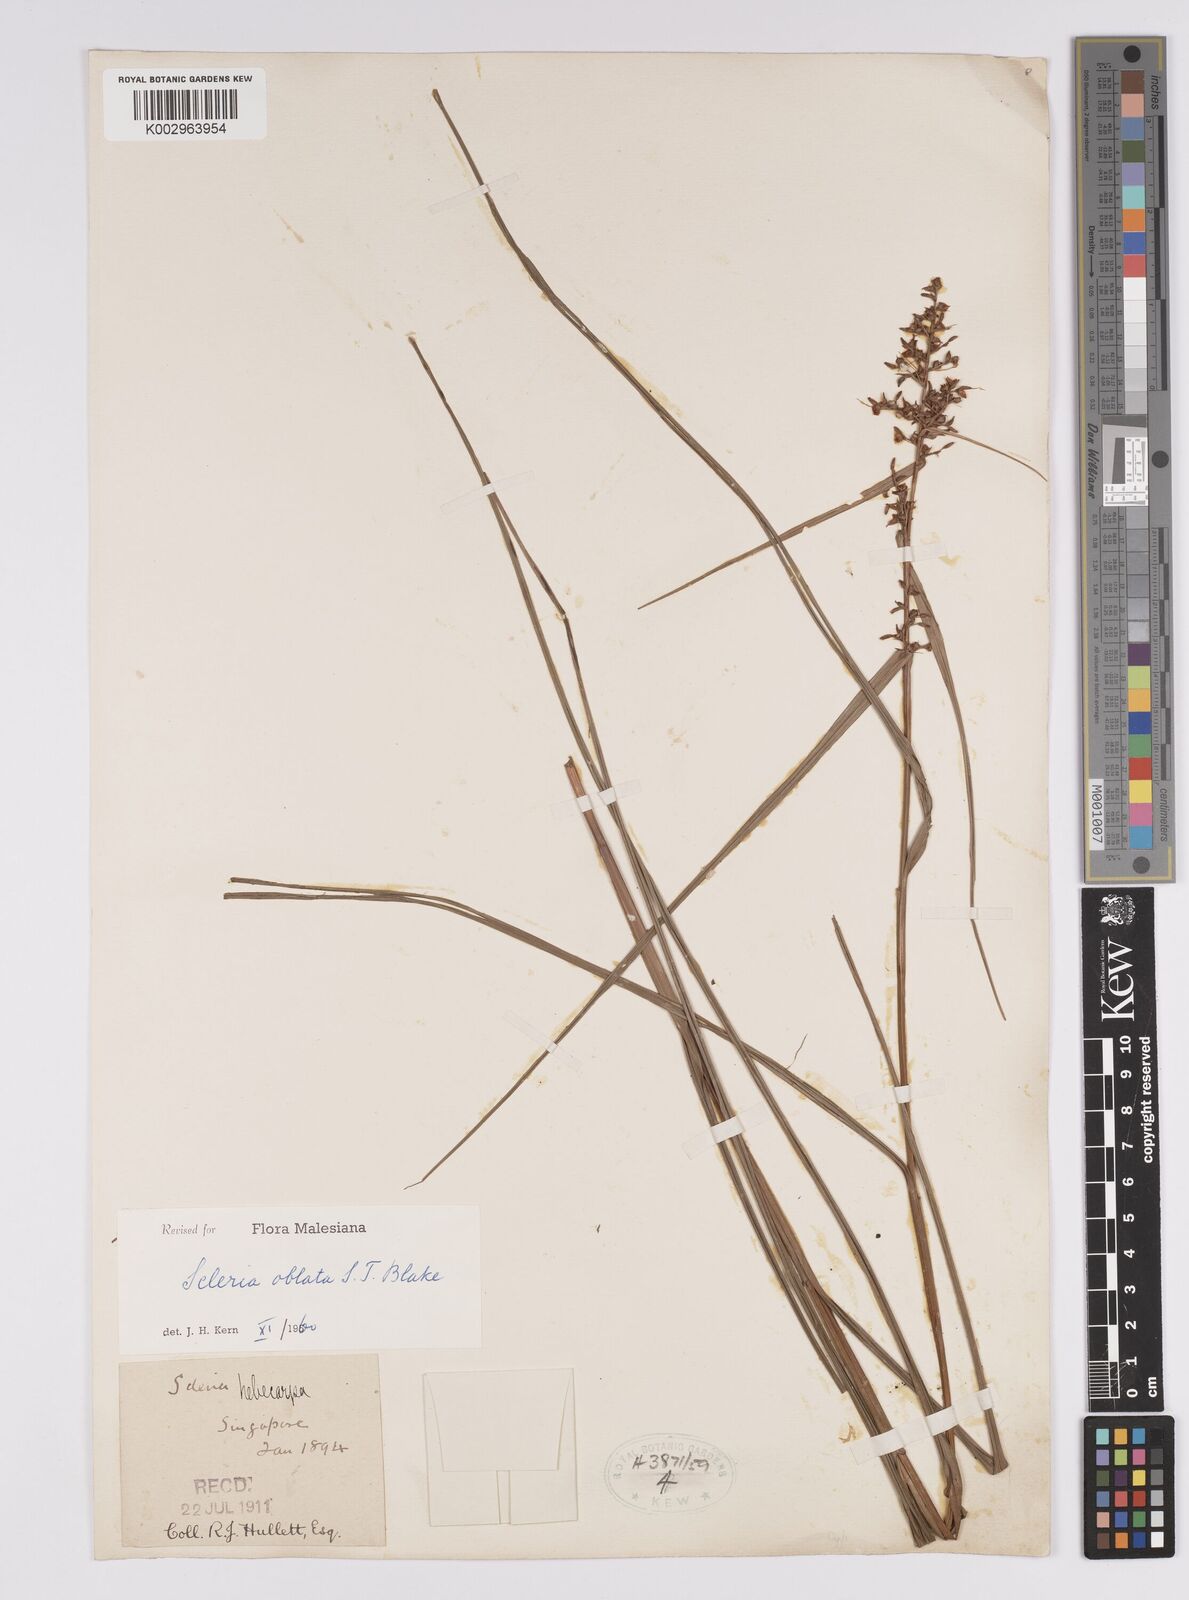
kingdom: Plantae
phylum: Tracheophyta
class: Liliopsida
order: Poales
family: Cyperaceae
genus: Scleria
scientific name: Scleria oblata
